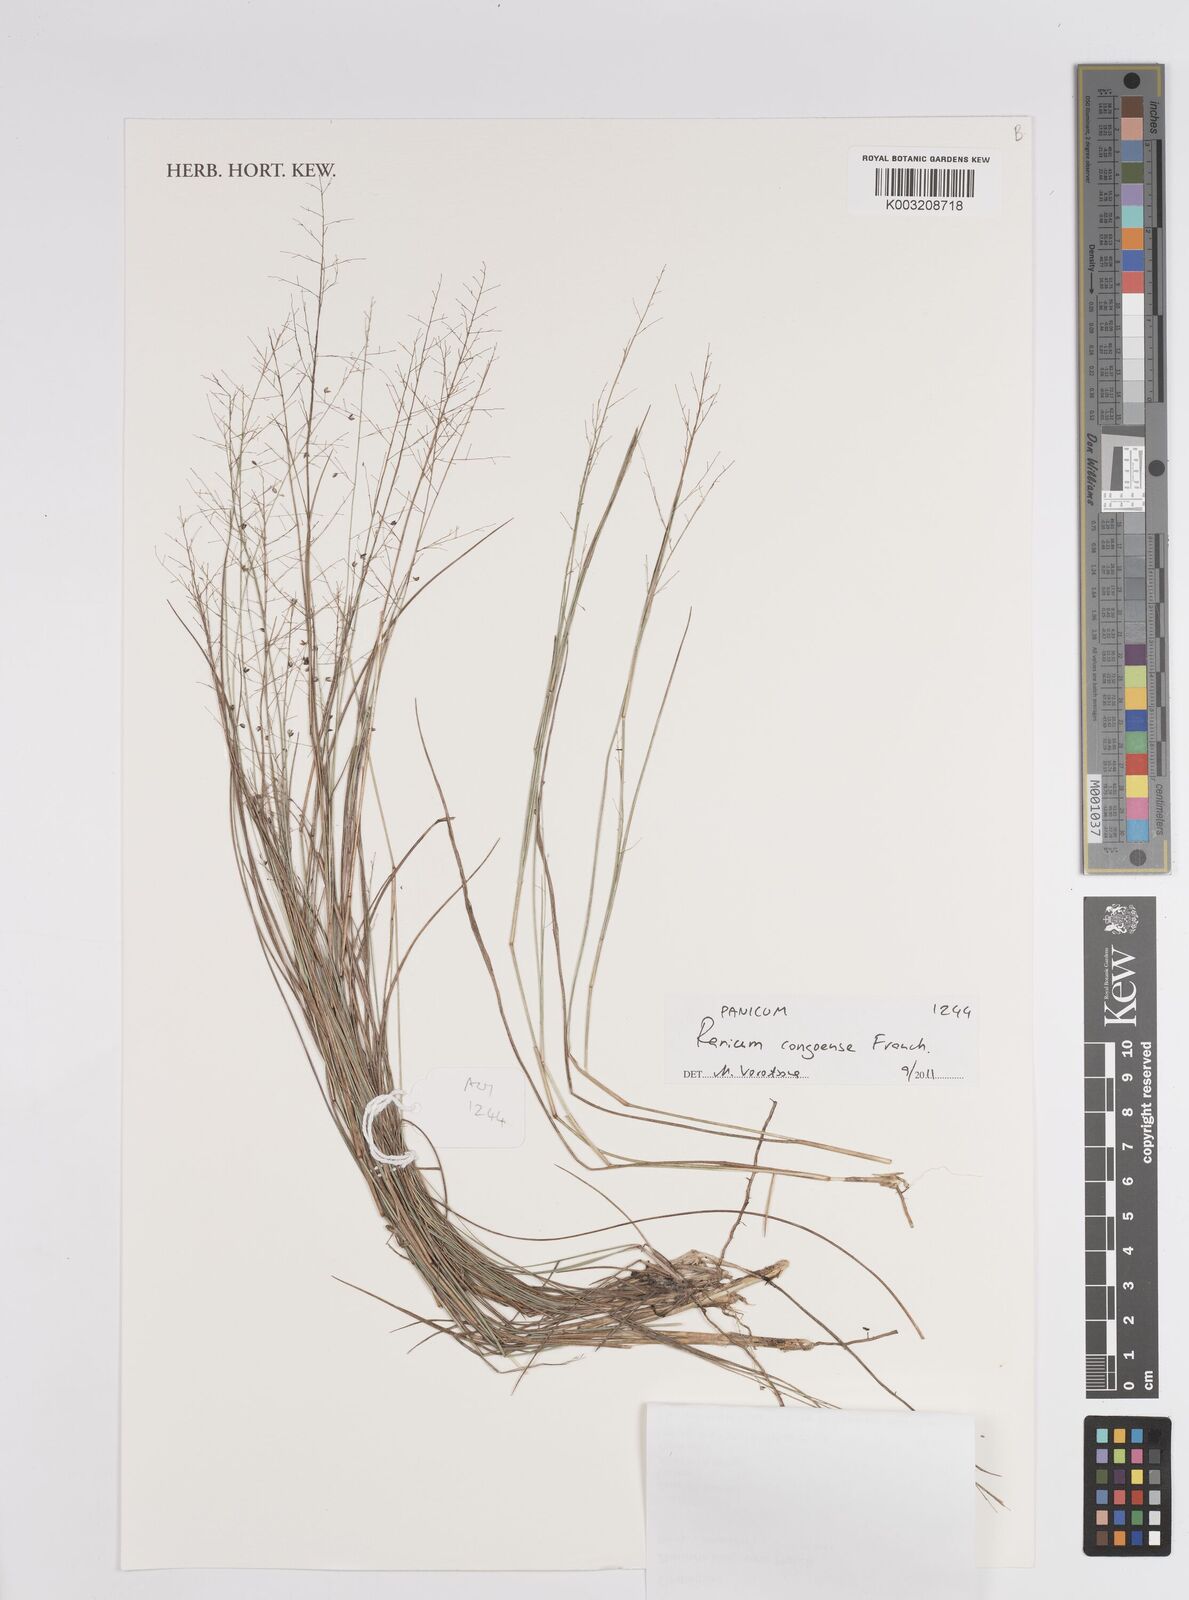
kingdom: Plantae
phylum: Tracheophyta
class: Liliopsida
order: Poales
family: Poaceae
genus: Panicum
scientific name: Panicum congoense
